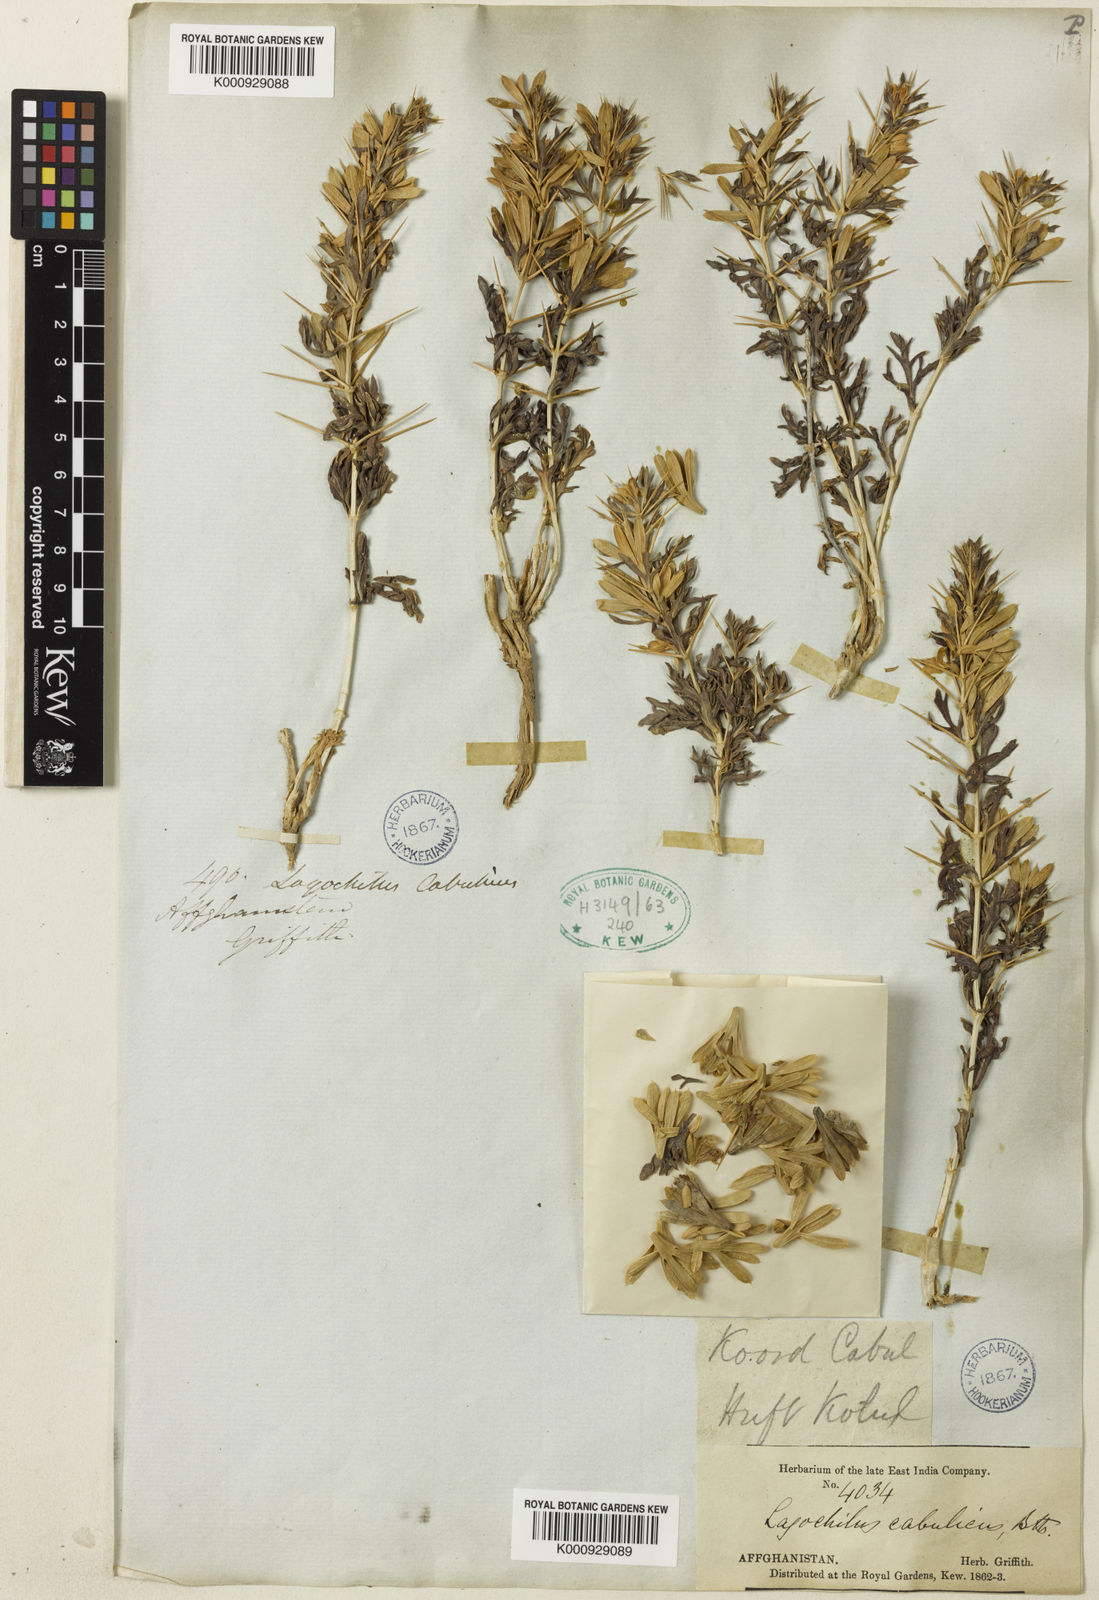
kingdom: Plantae
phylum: Tracheophyta
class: Magnoliopsida
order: Lamiales
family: Lamiaceae
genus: Lagochilus
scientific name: Lagochilus cabulicus
